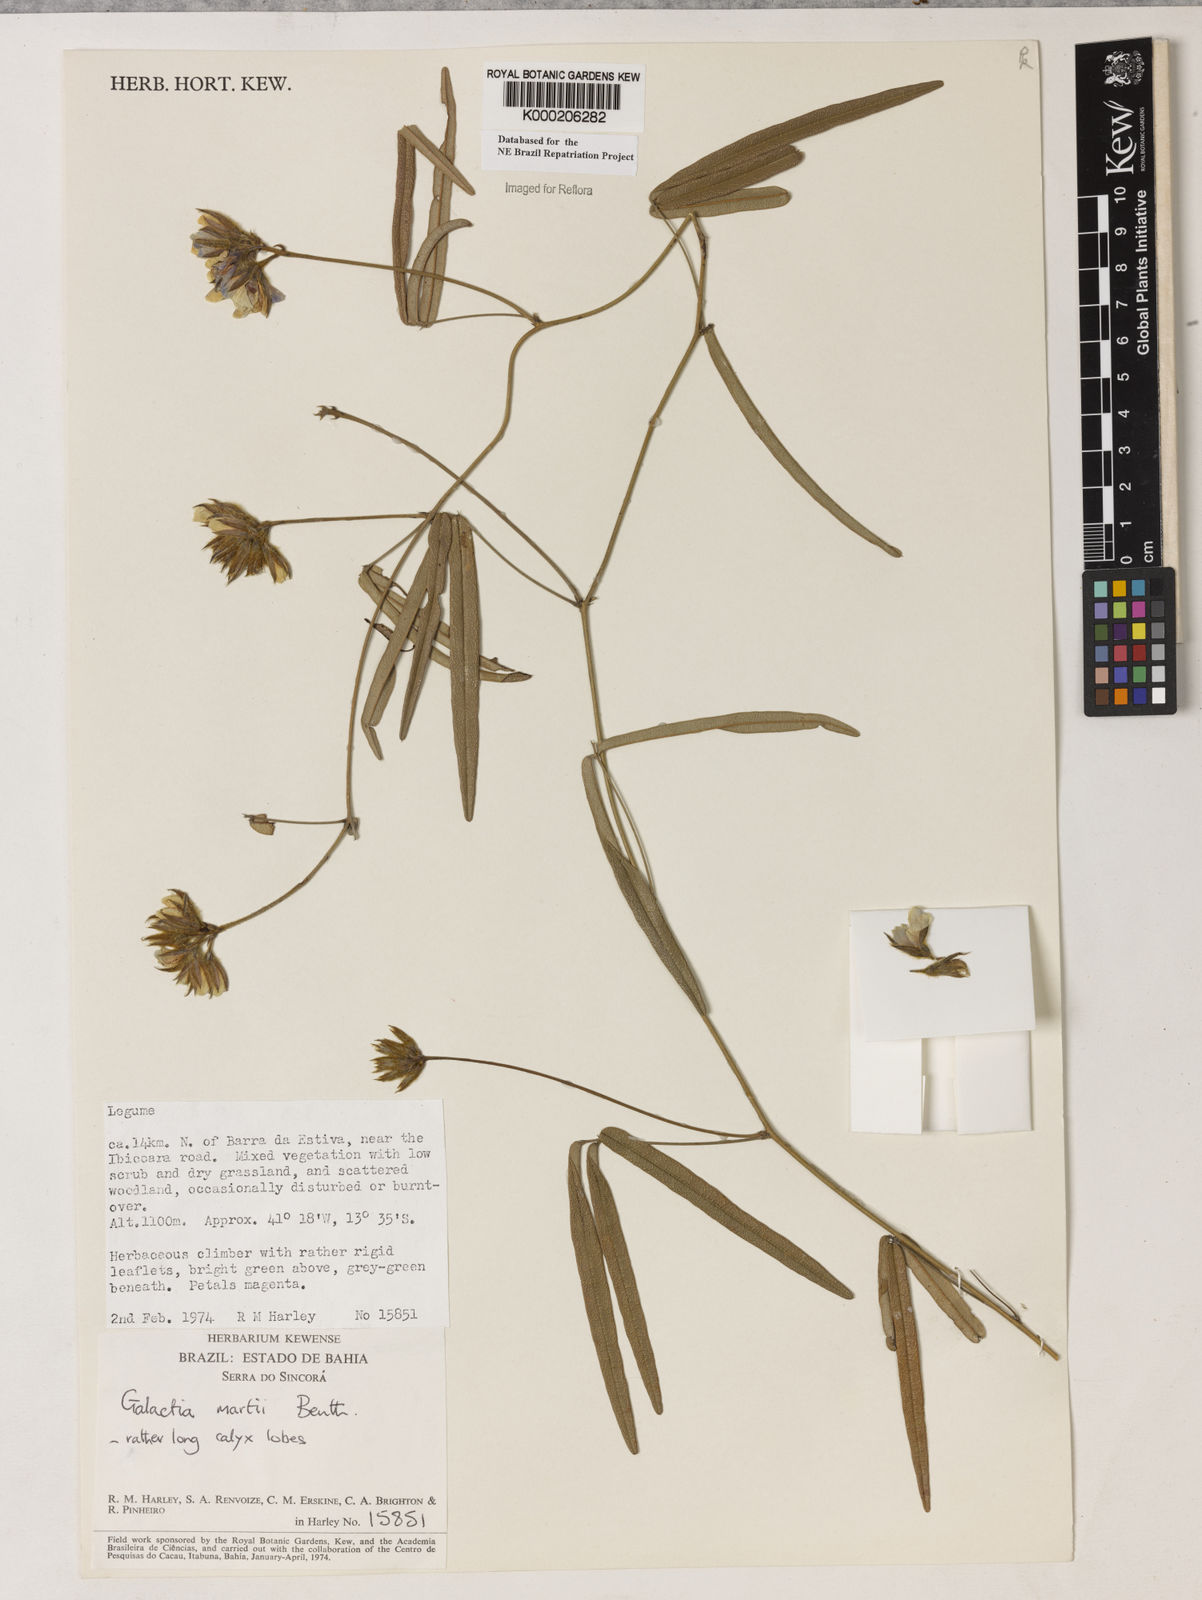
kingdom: Plantae
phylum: Tracheophyta
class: Magnoliopsida
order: Fabales
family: Fabaceae
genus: Betencourtia
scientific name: Betencourtia martii
